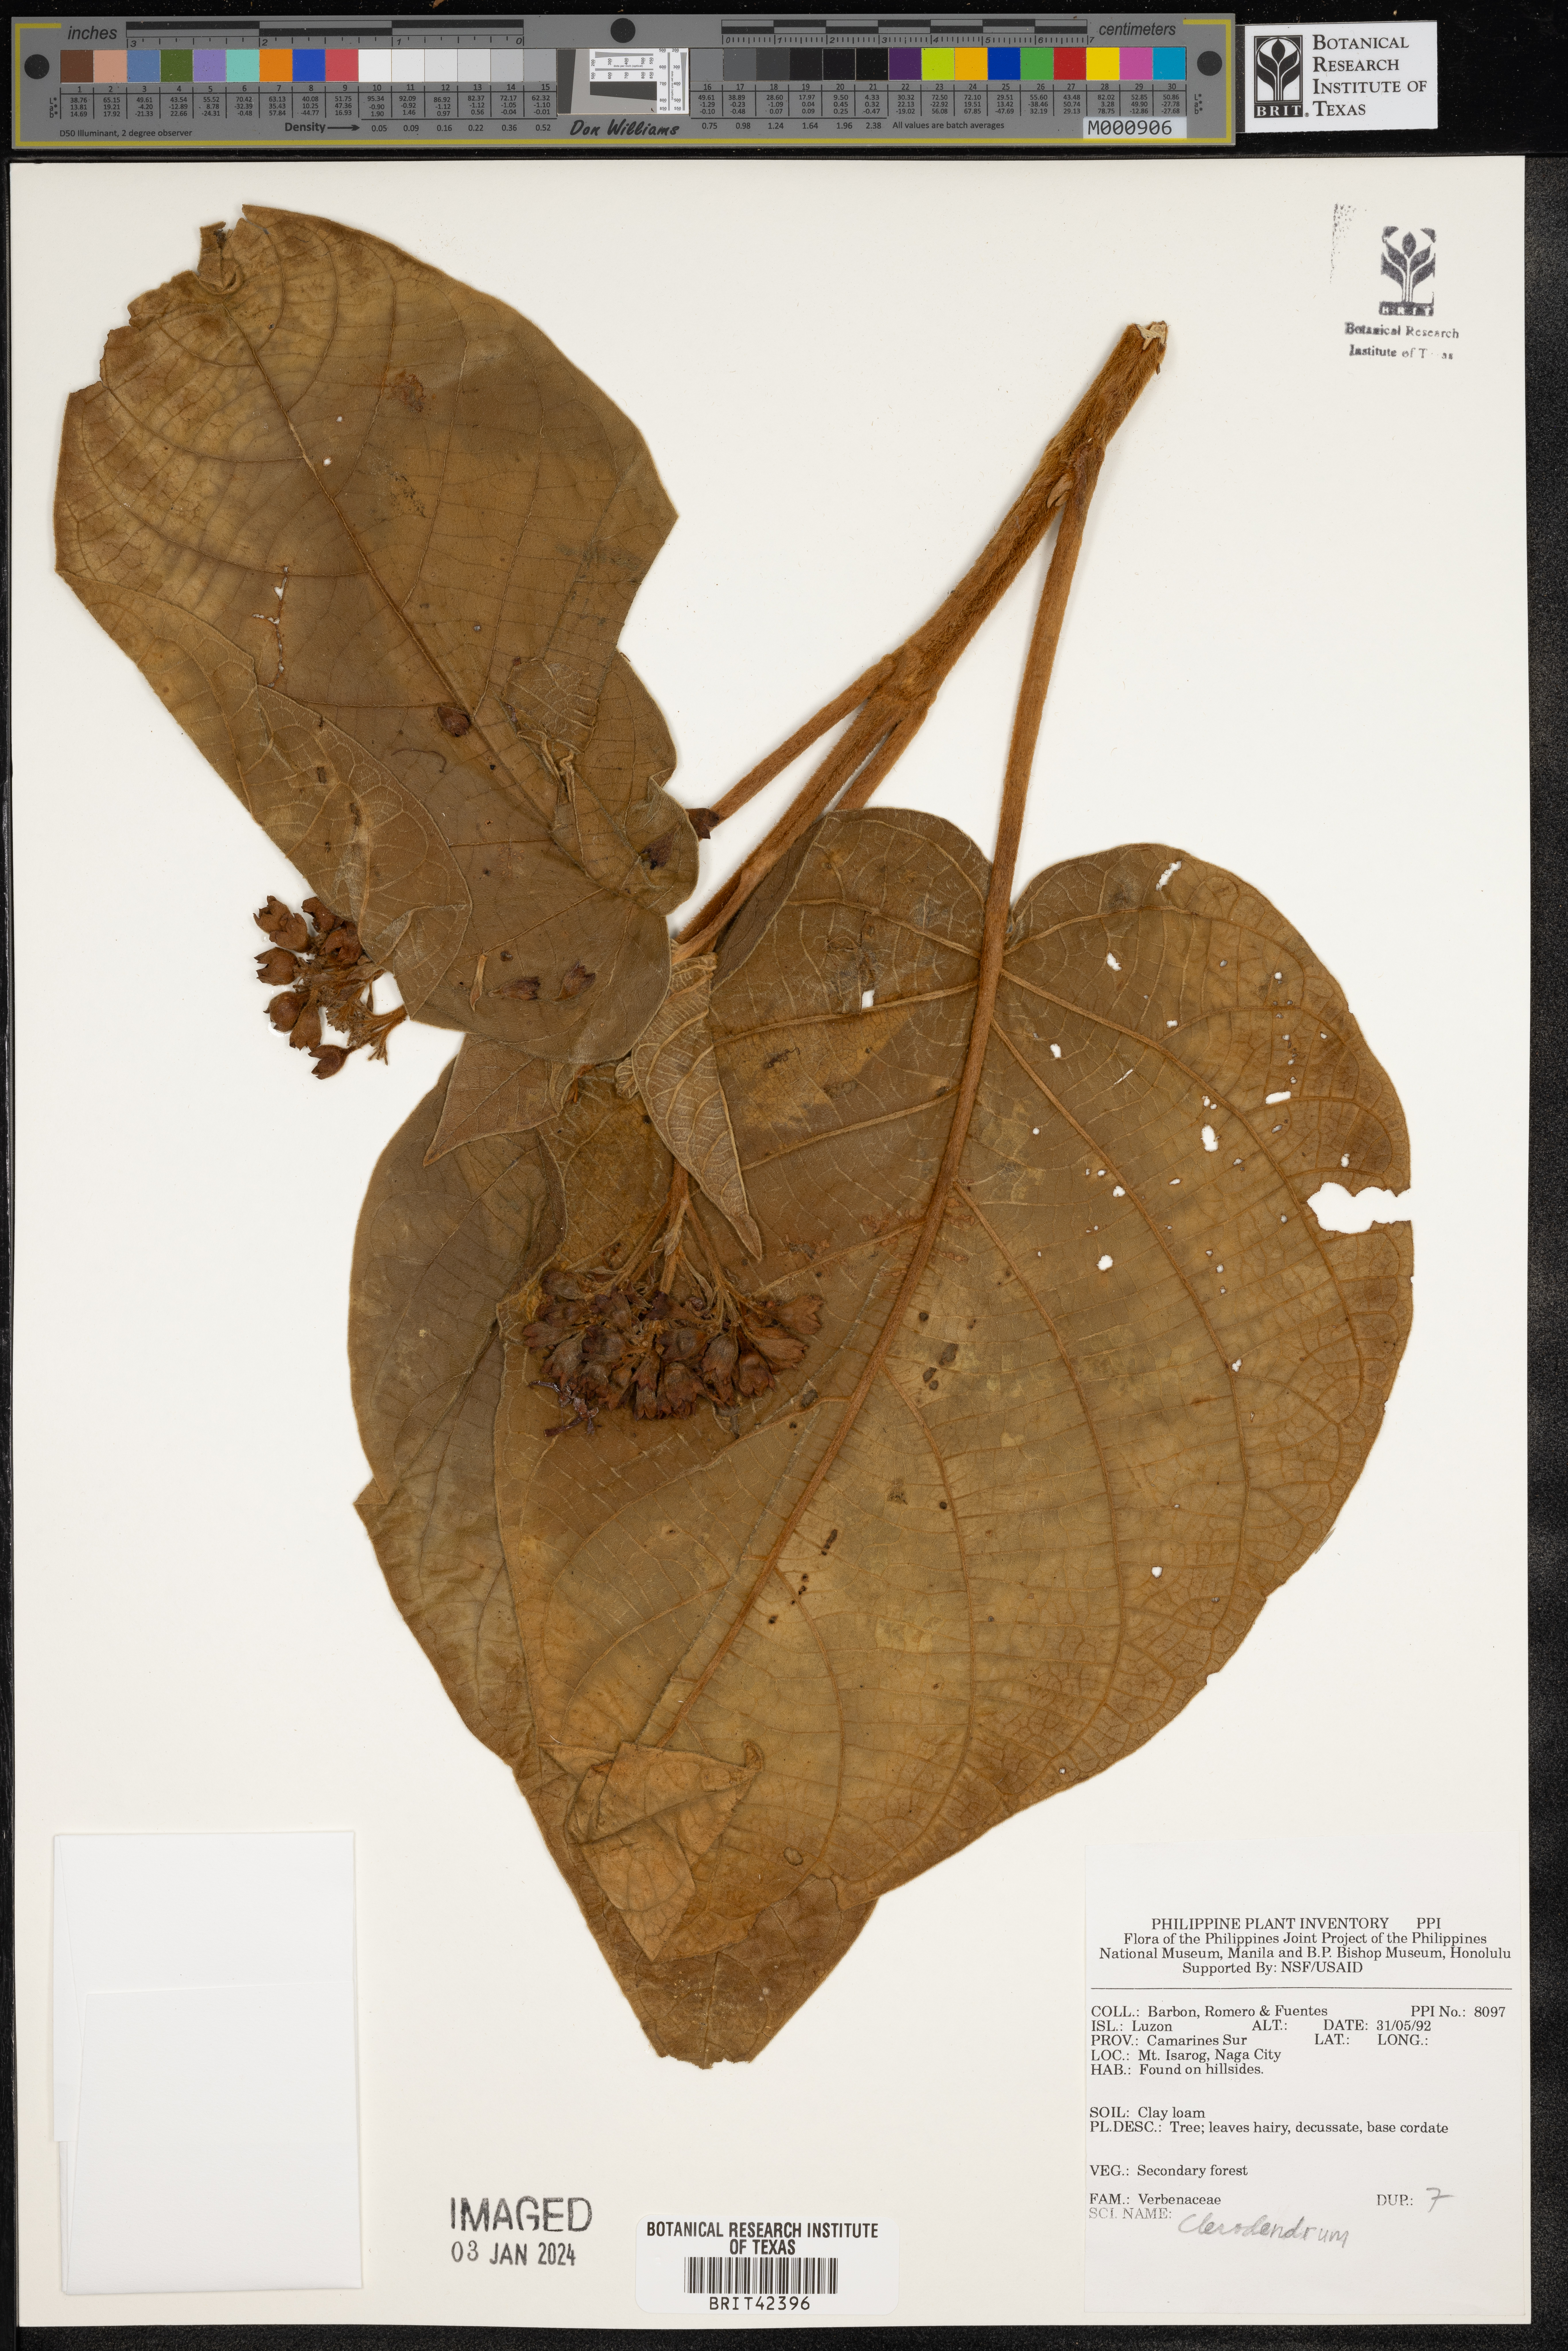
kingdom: Plantae
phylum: Tracheophyta
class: Magnoliopsida
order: Lamiales
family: Lamiaceae
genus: Clerodendrum
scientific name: Clerodendrum
